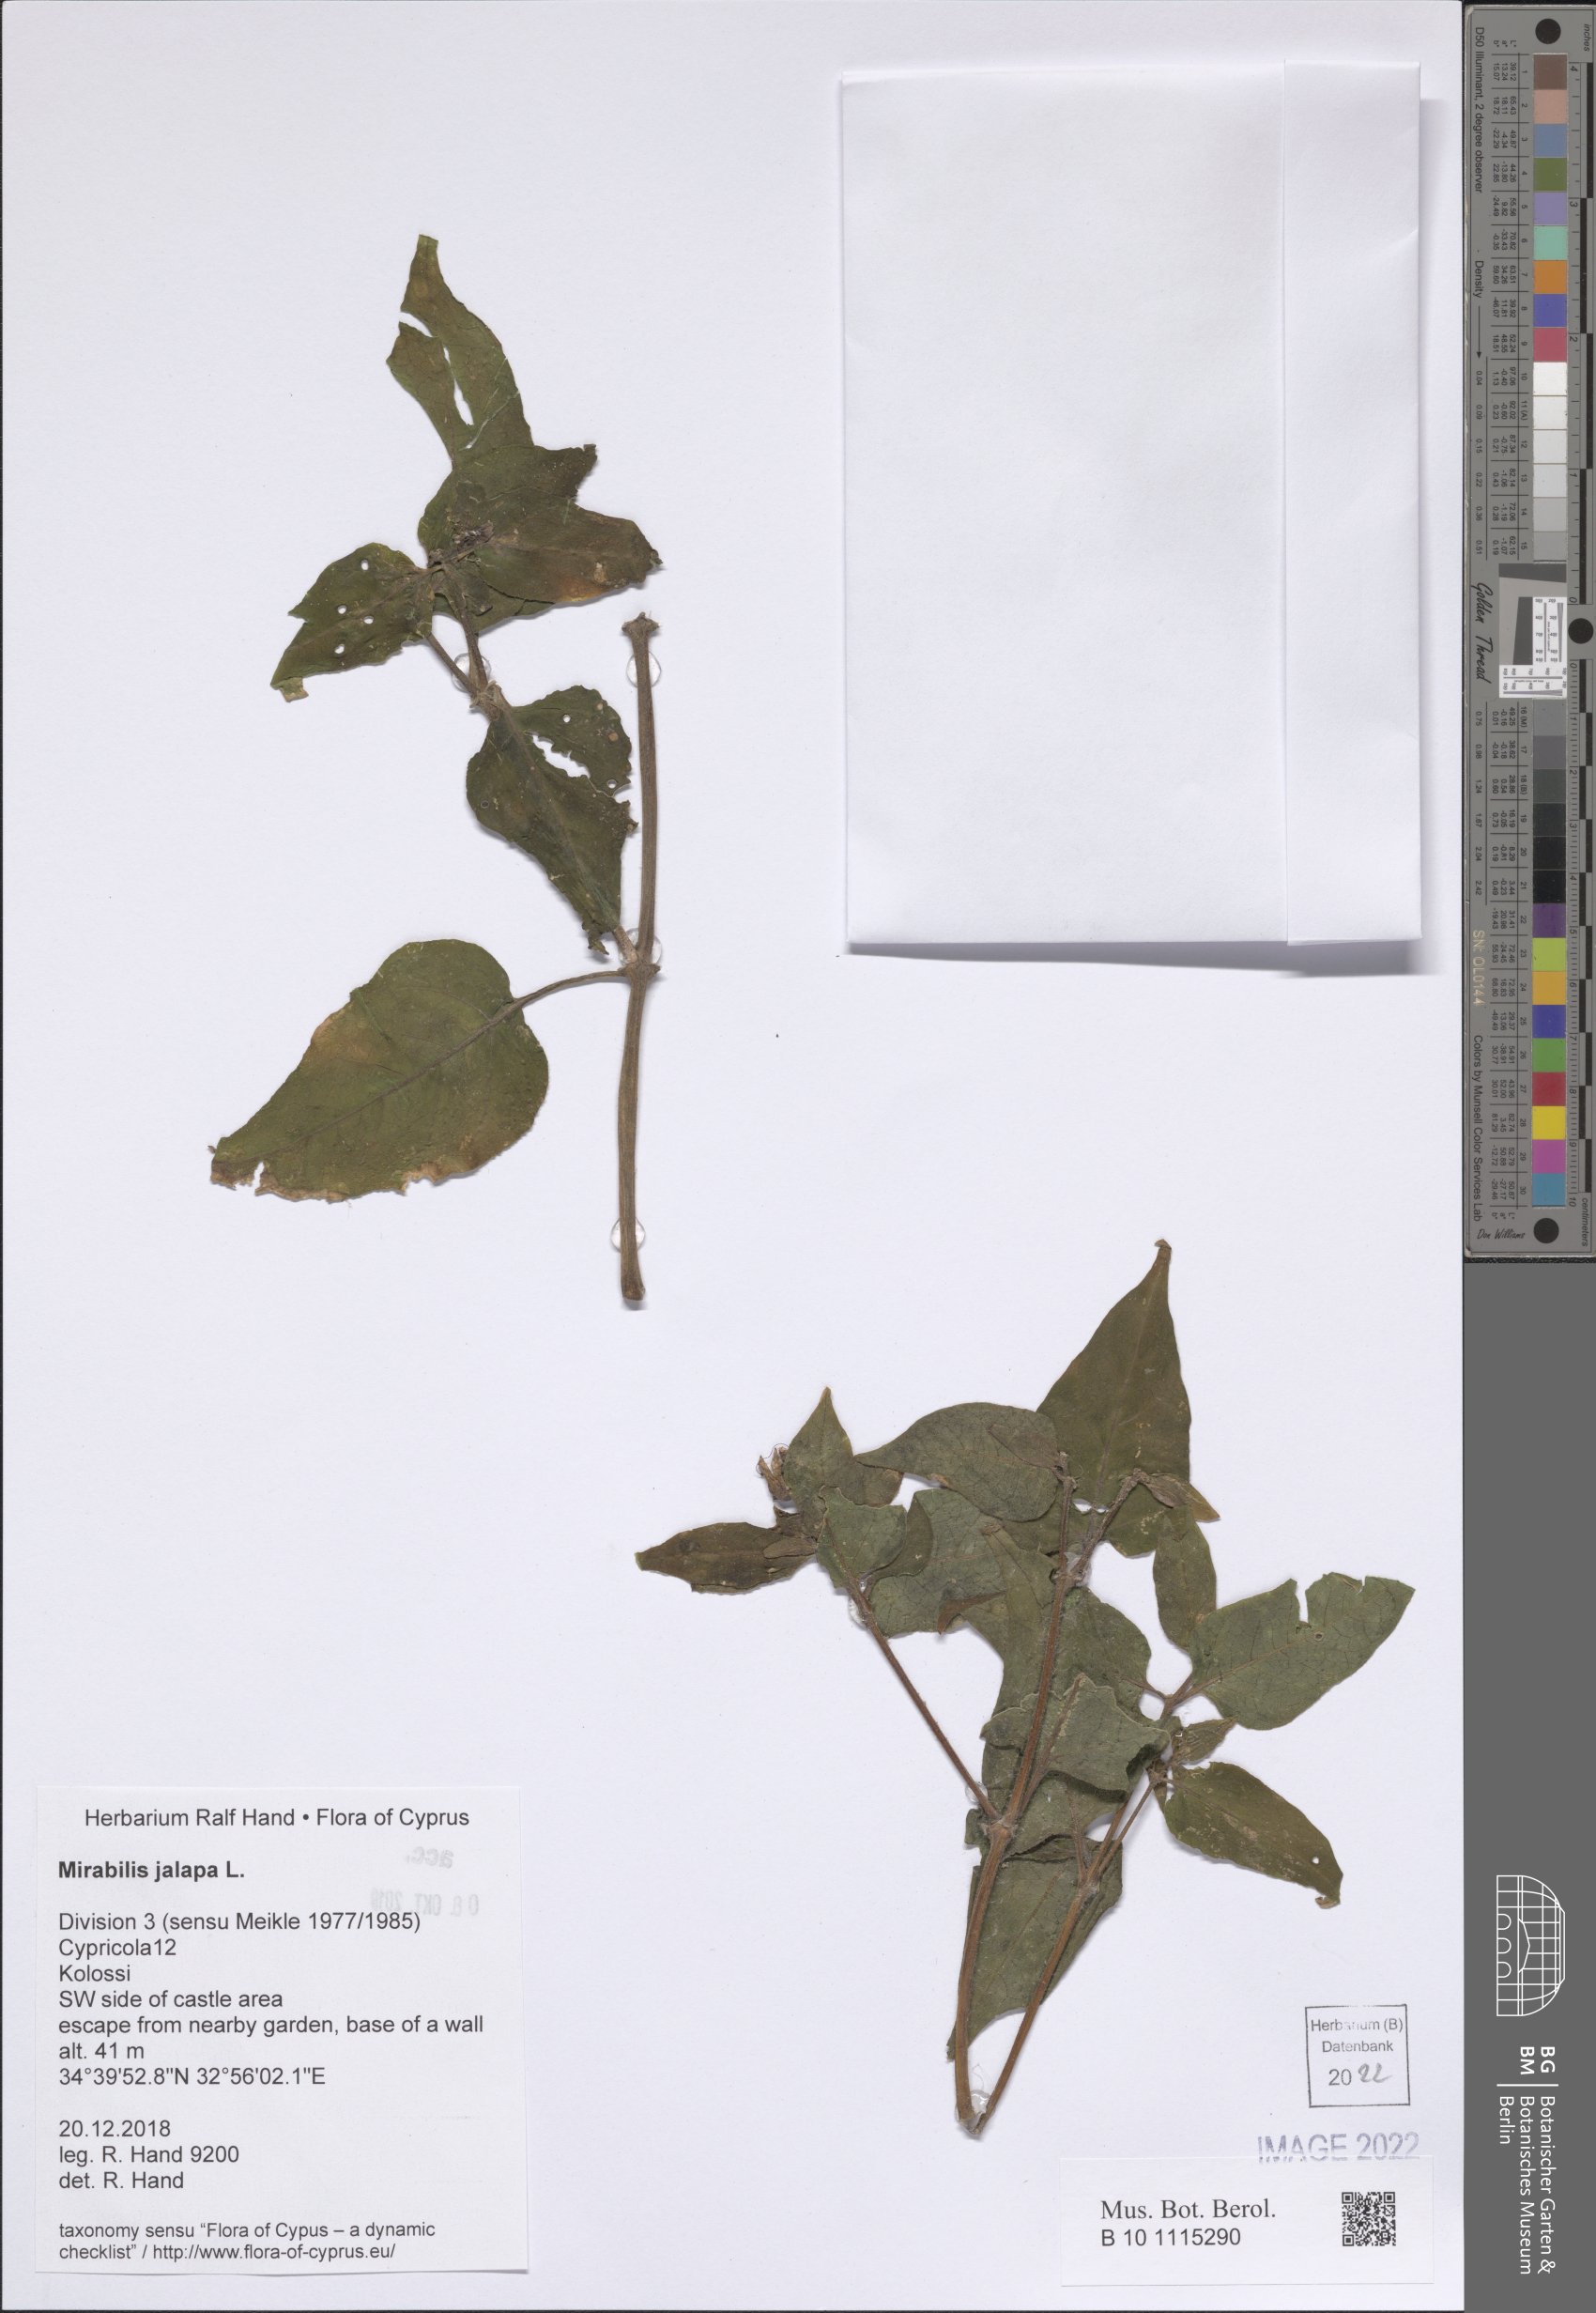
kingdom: Plantae
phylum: Tracheophyta
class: Magnoliopsida
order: Caryophyllales
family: Nyctaginaceae
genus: Mirabilis
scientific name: Mirabilis jalapa
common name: Marvel-of-peru
